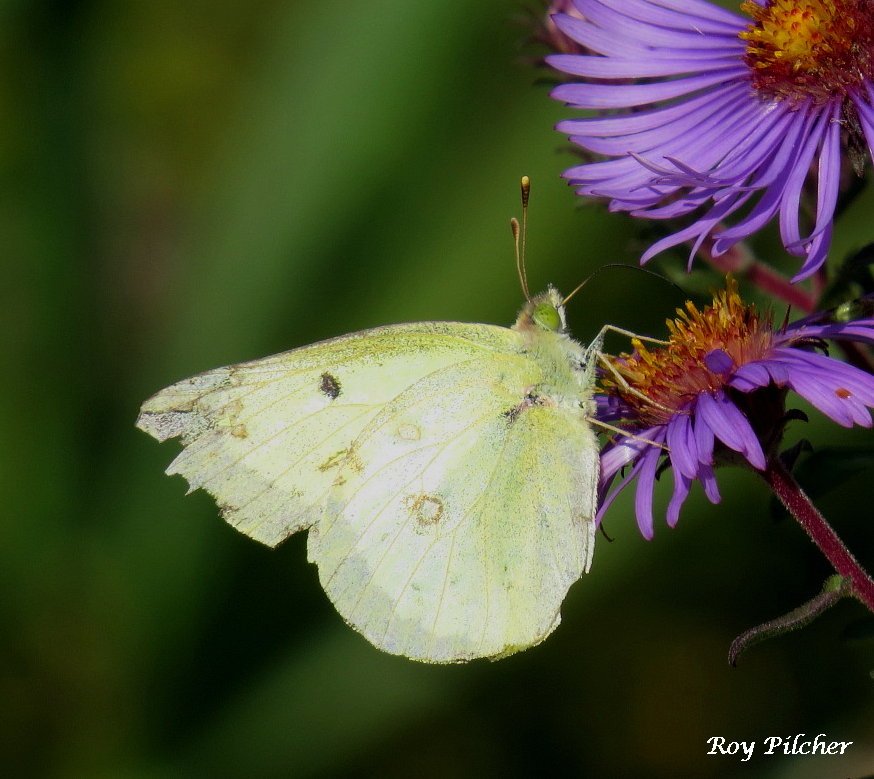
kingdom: Animalia
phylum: Arthropoda
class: Insecta
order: Lepidoptera
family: Pieridae
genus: Colias
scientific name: Colias philodice
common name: Clouded Sulphur
